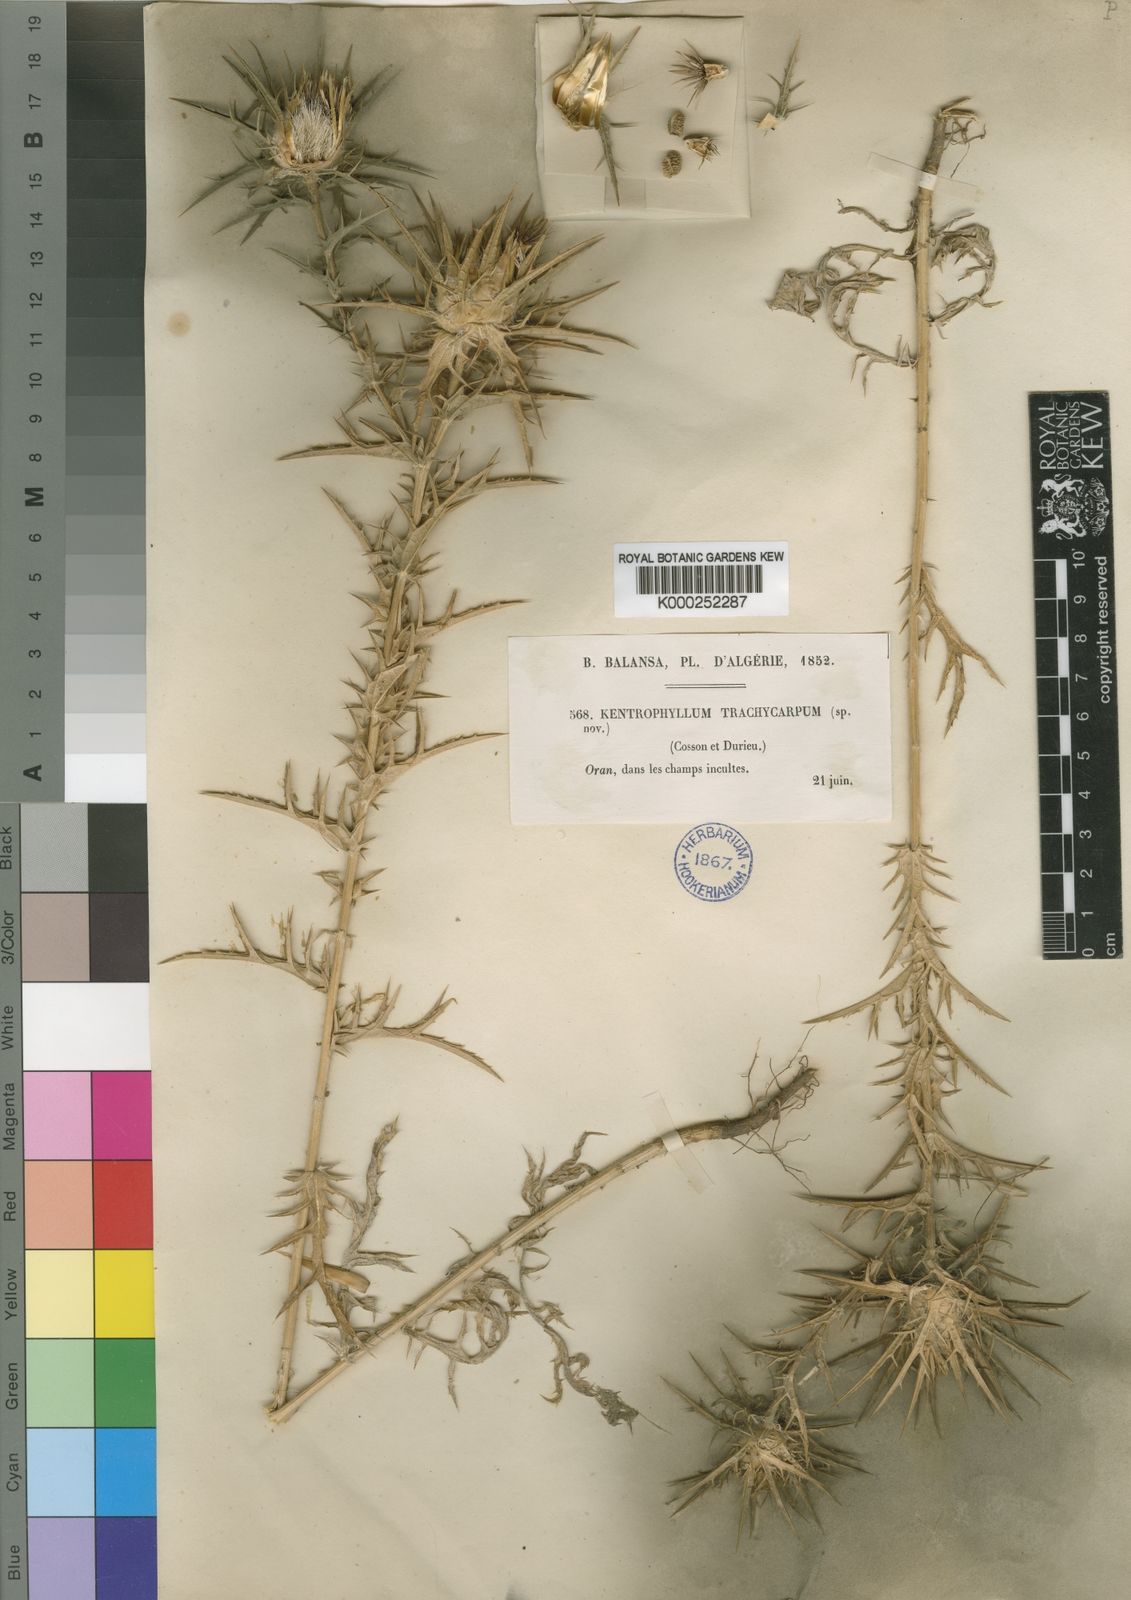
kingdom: Plantae
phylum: Tracheophyta
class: Magnoliopsida
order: Asterales
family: Asteraceae
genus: Carthamus
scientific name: Carthamus lanatus
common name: Downy safflower
